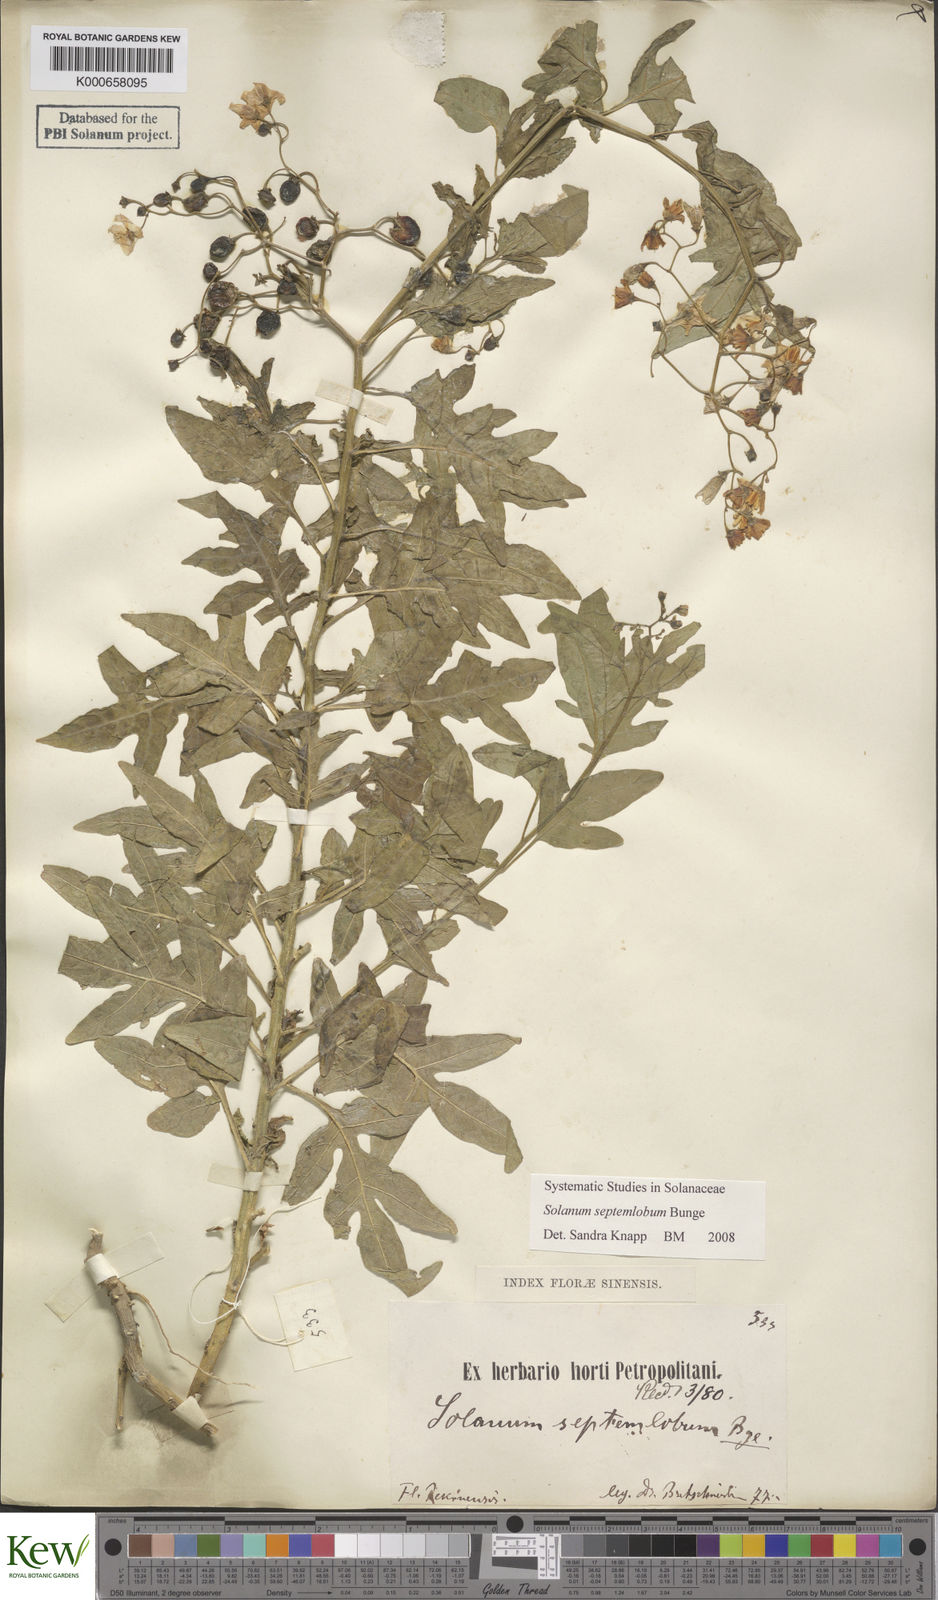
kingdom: Plantae
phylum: Tracheophyta
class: Magnoliopsida
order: Solanales
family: Solanaceae
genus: Solanum
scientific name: Solanum septemlobum
